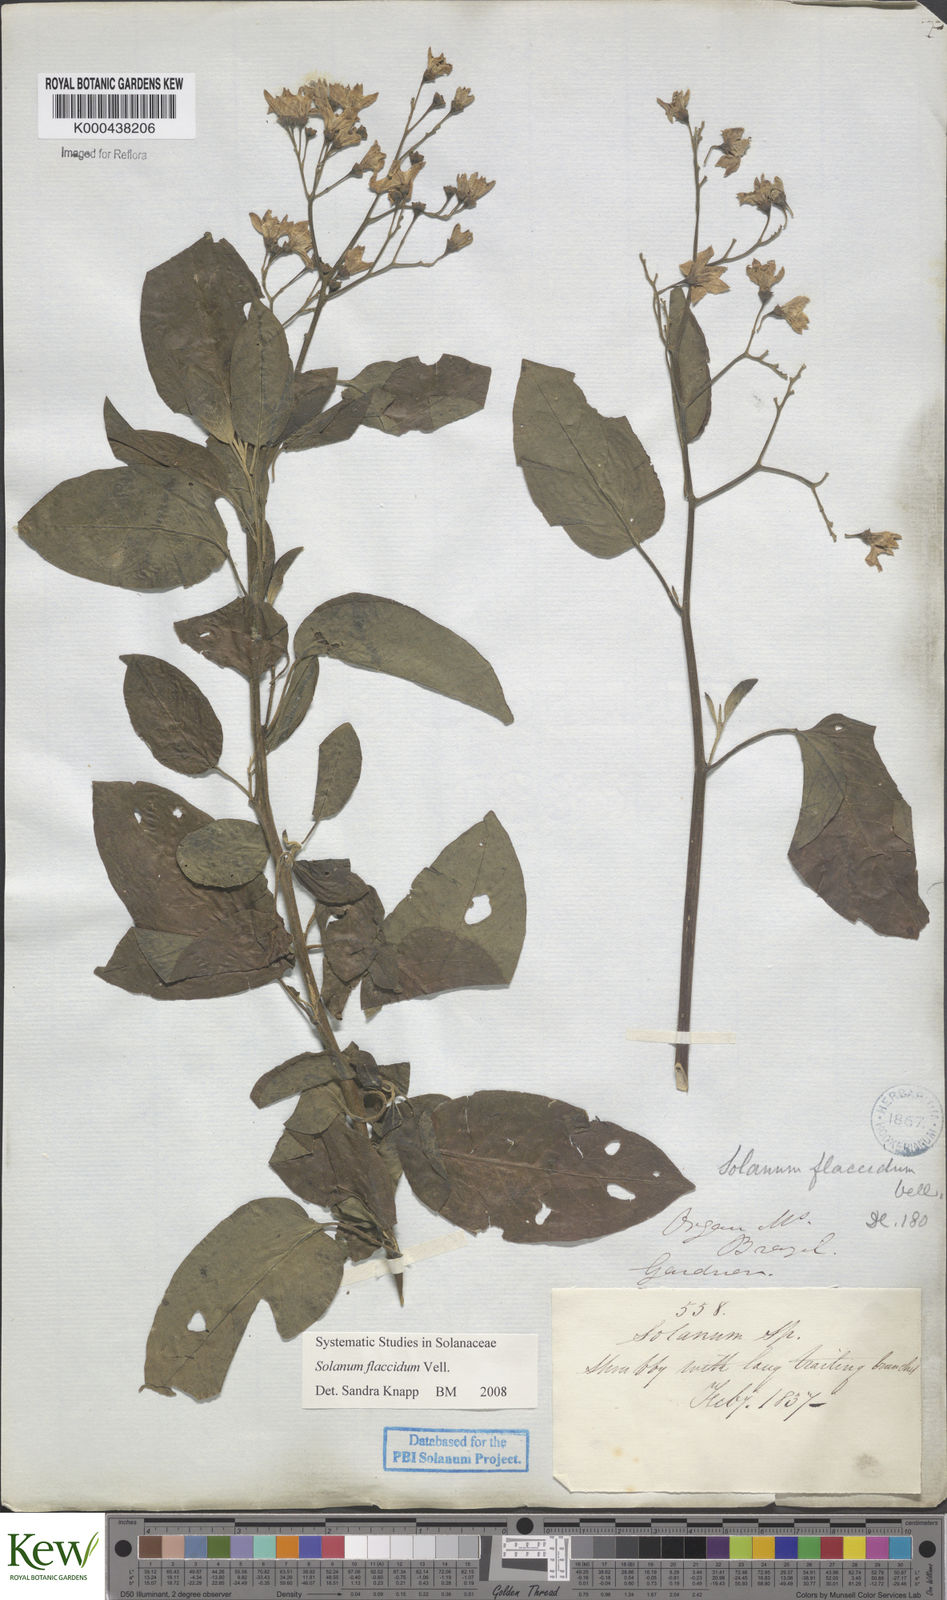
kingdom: Plantae
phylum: Tracheophyta
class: Magnoliopsida
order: Solanales
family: Solanaceae
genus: Solanum
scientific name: Solanum flaccidum
